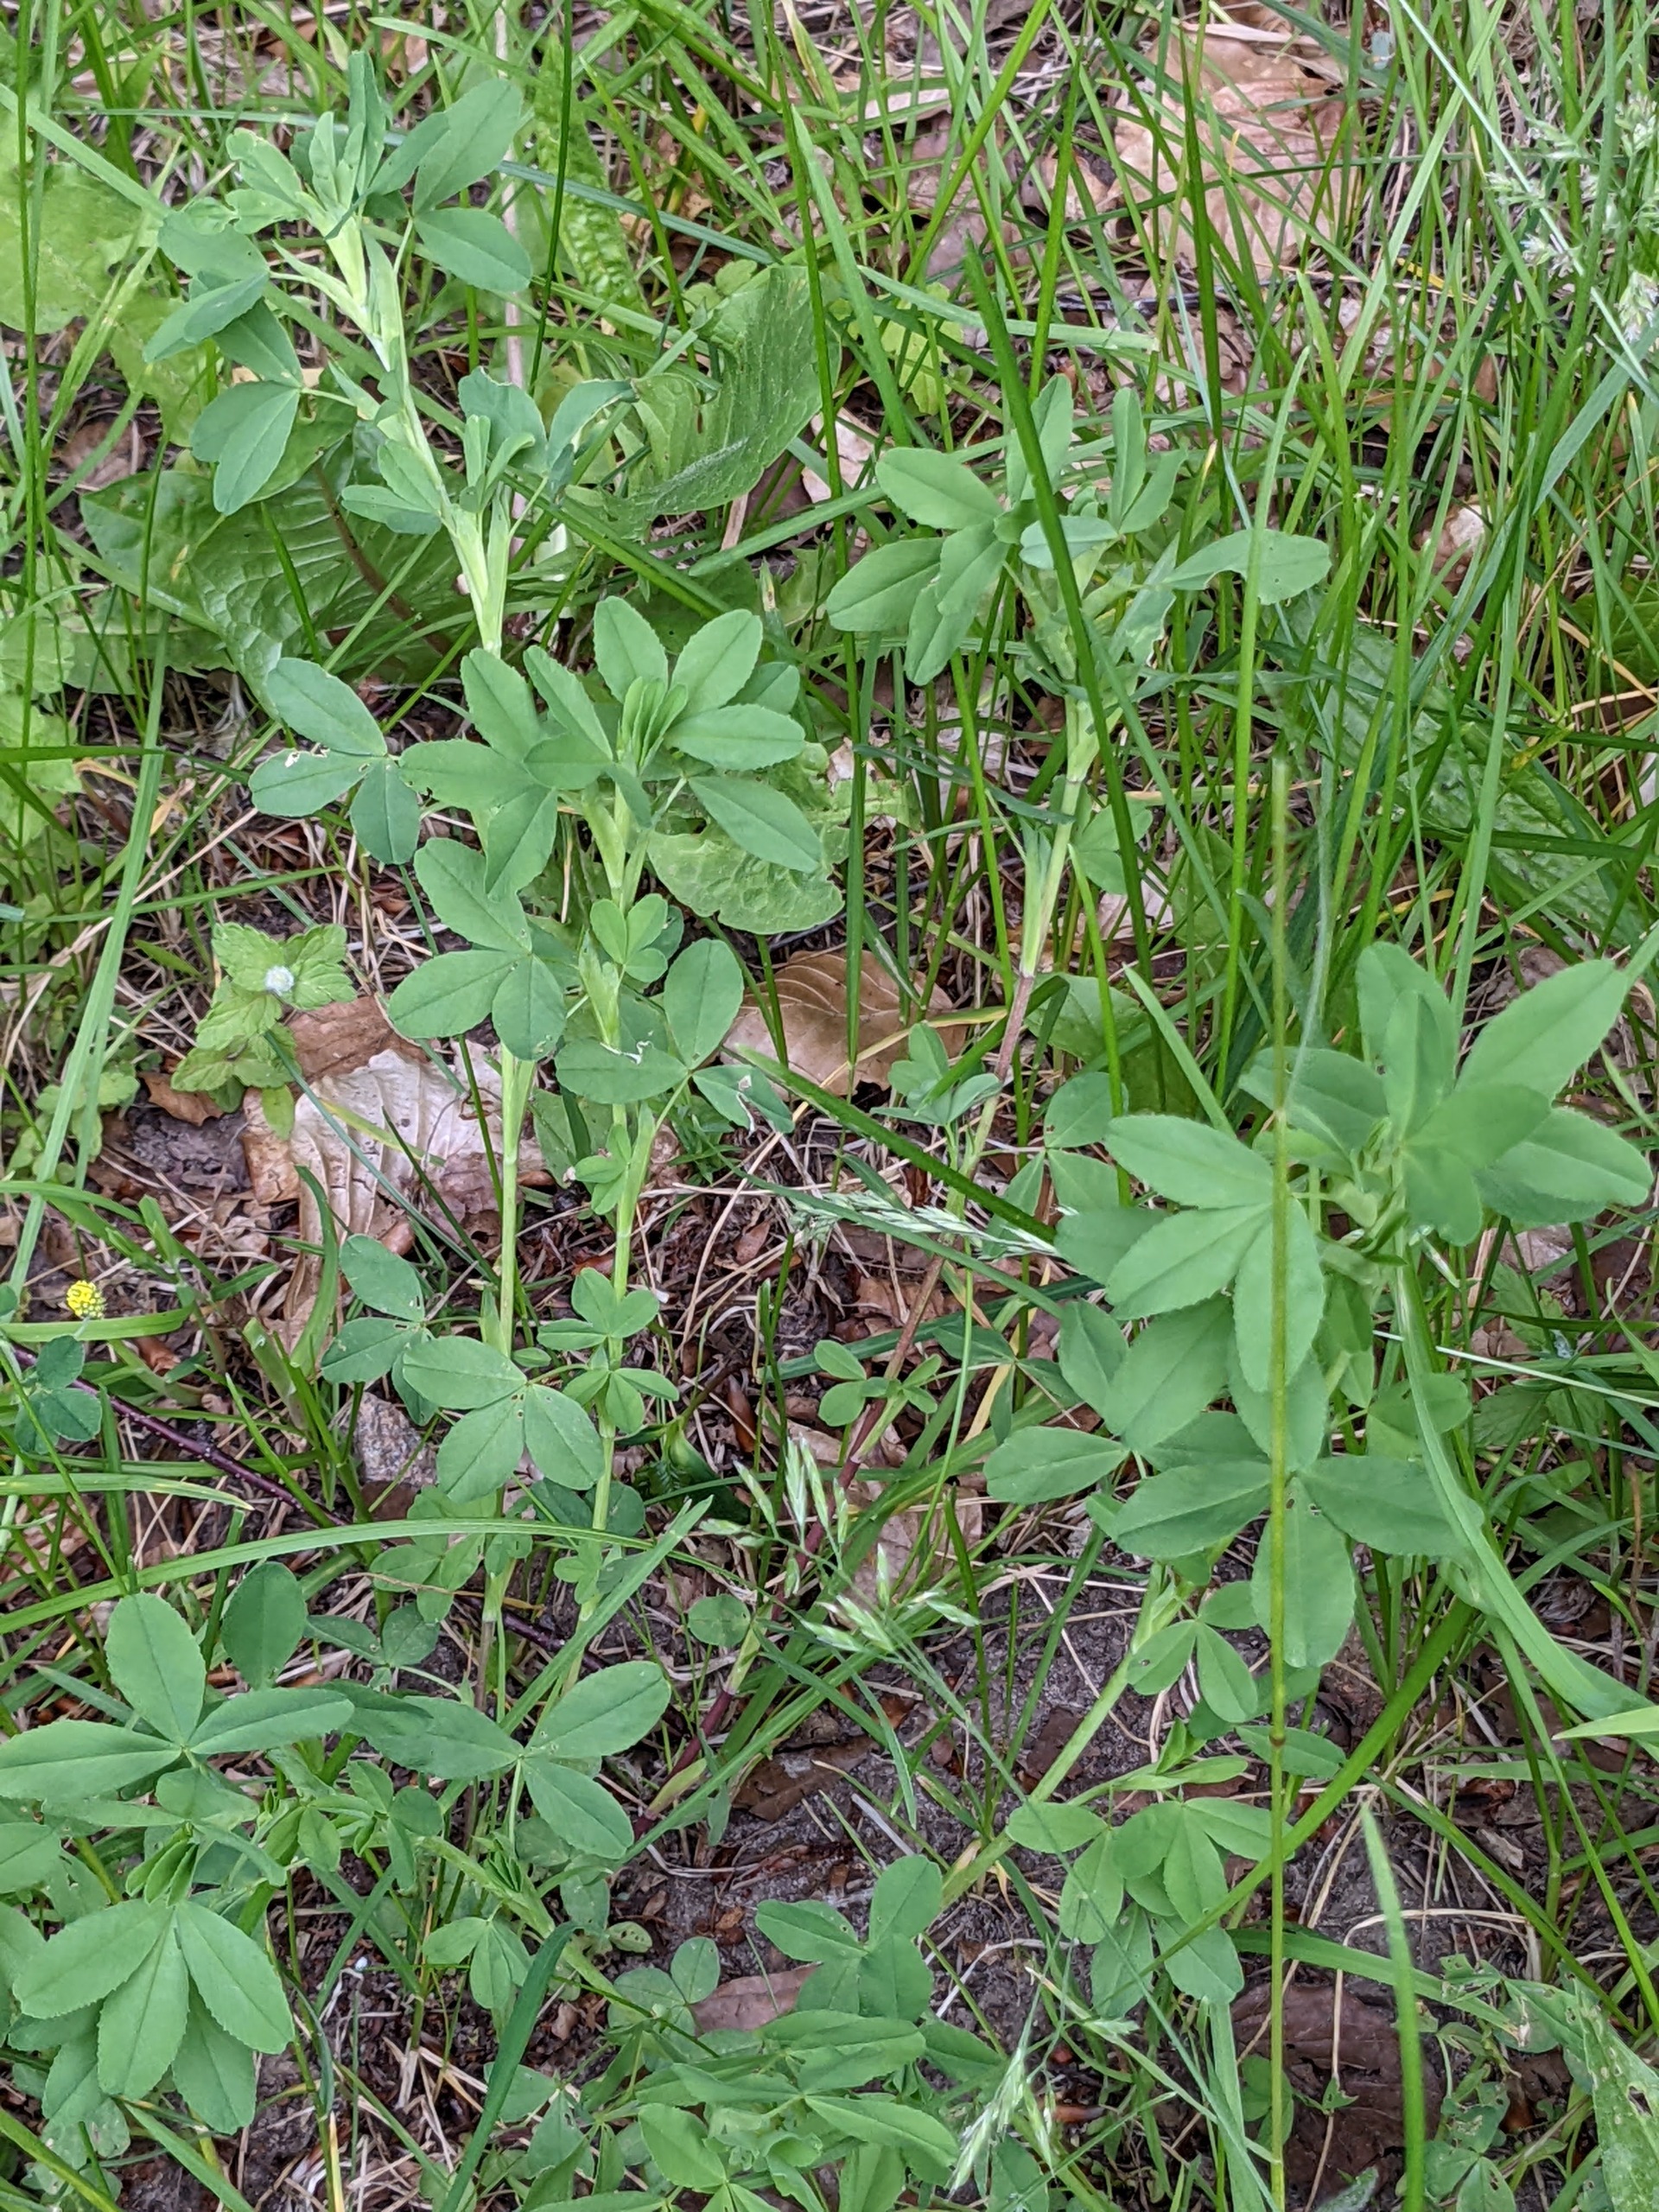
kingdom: Plantae
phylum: Tracheophyta
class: Magnoliopsida
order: Fabales
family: Fabaceae
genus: Trifolium
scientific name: Trifolium aureum
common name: Humle-kløver
